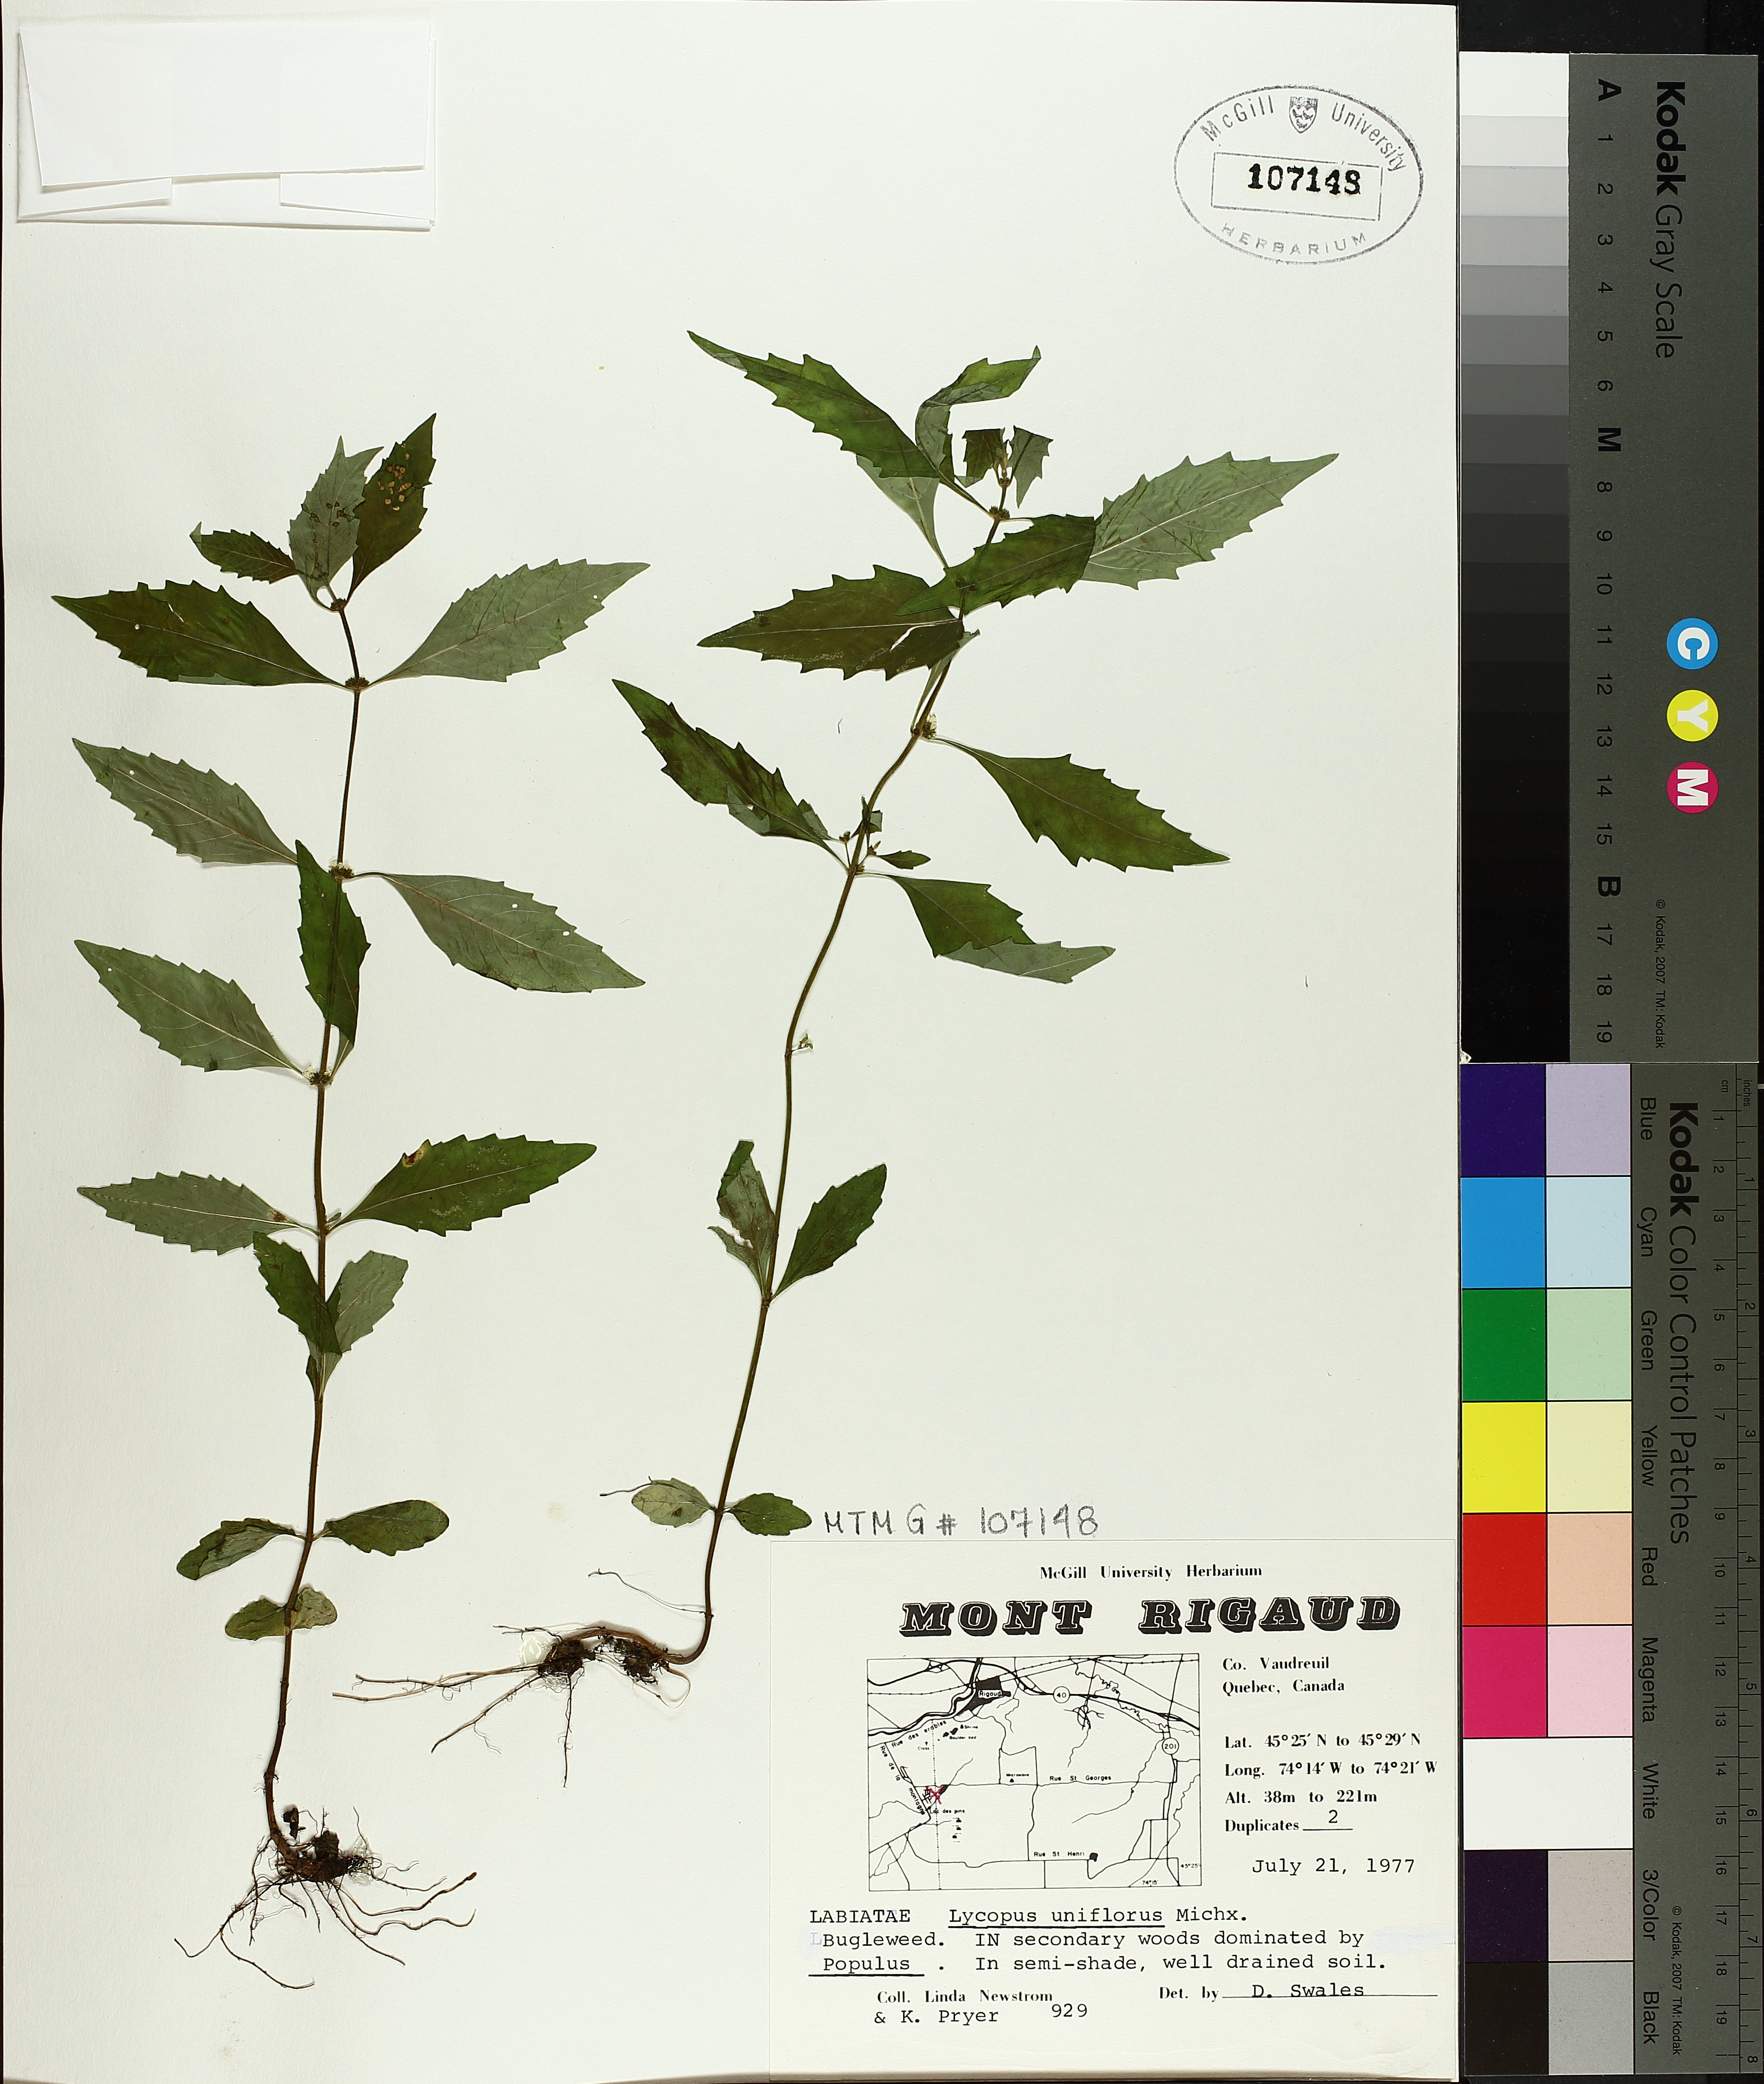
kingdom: Plantae
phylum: Tracheophyta
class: Magnoliopsida
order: Lamiales
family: Lamiaceae
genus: Lycopus
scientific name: Lycopus uniflorus
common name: Northern bugleweed
